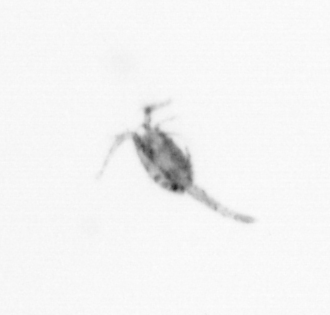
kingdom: Animalia
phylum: Arthropoda
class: Copepoda
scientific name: Copepoda
